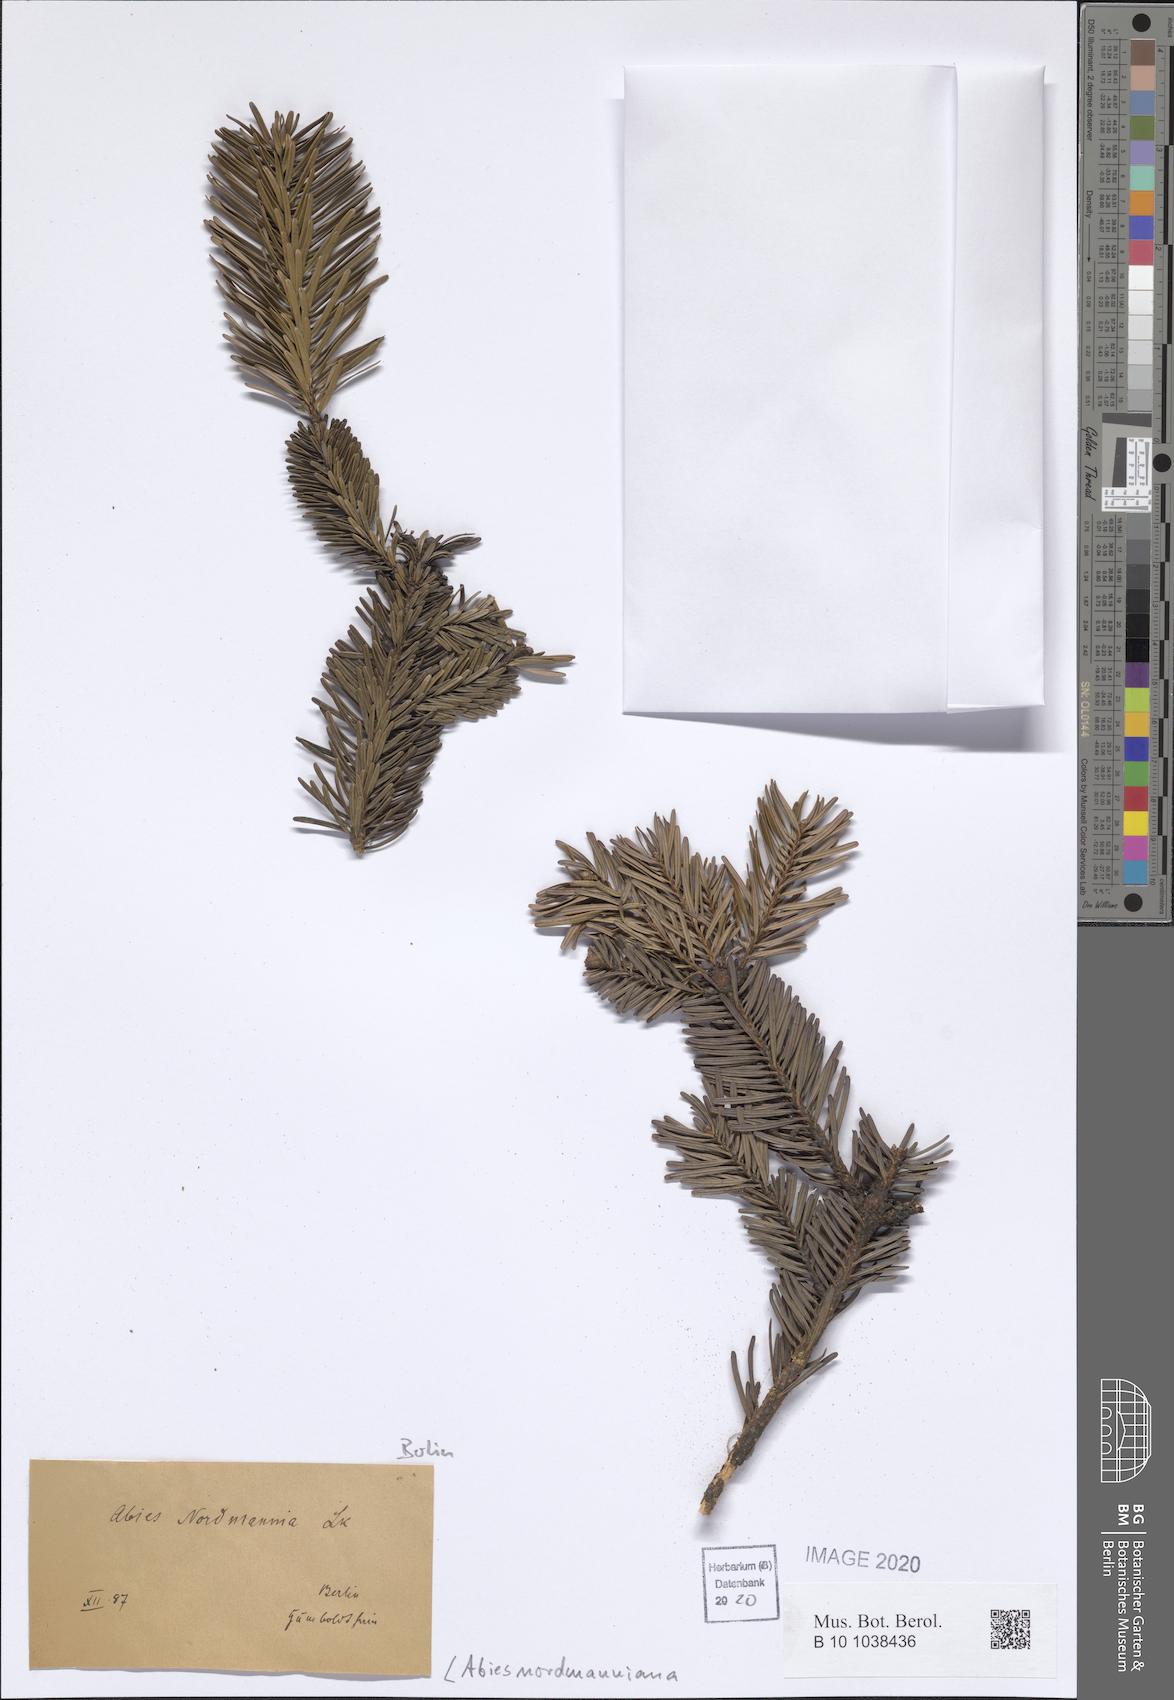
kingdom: Plantae
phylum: Tracheophyta
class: Pinopsida
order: Pinales
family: Pinaceae
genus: Abies
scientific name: Abies nordmanniana
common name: Caucasian fir
